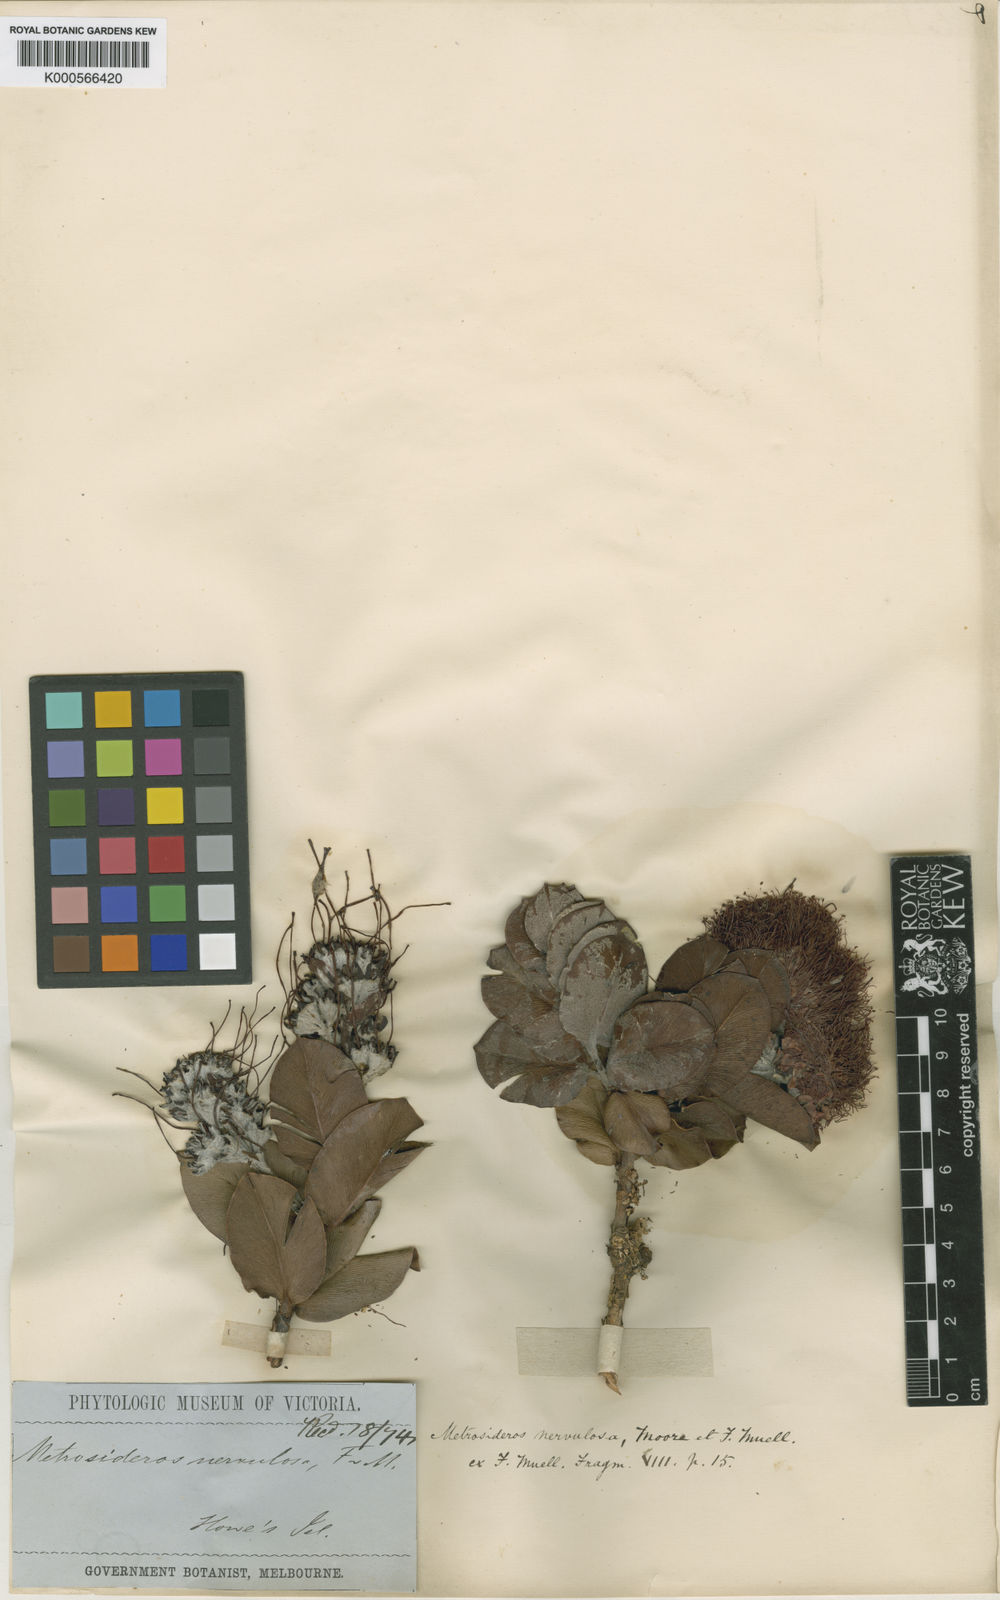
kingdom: Plantae
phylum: Tracheophyta
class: Magnoliopsida
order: Myrtales
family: Myrtaceae
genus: Metrosideros
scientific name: Metrosideros nervulosa
